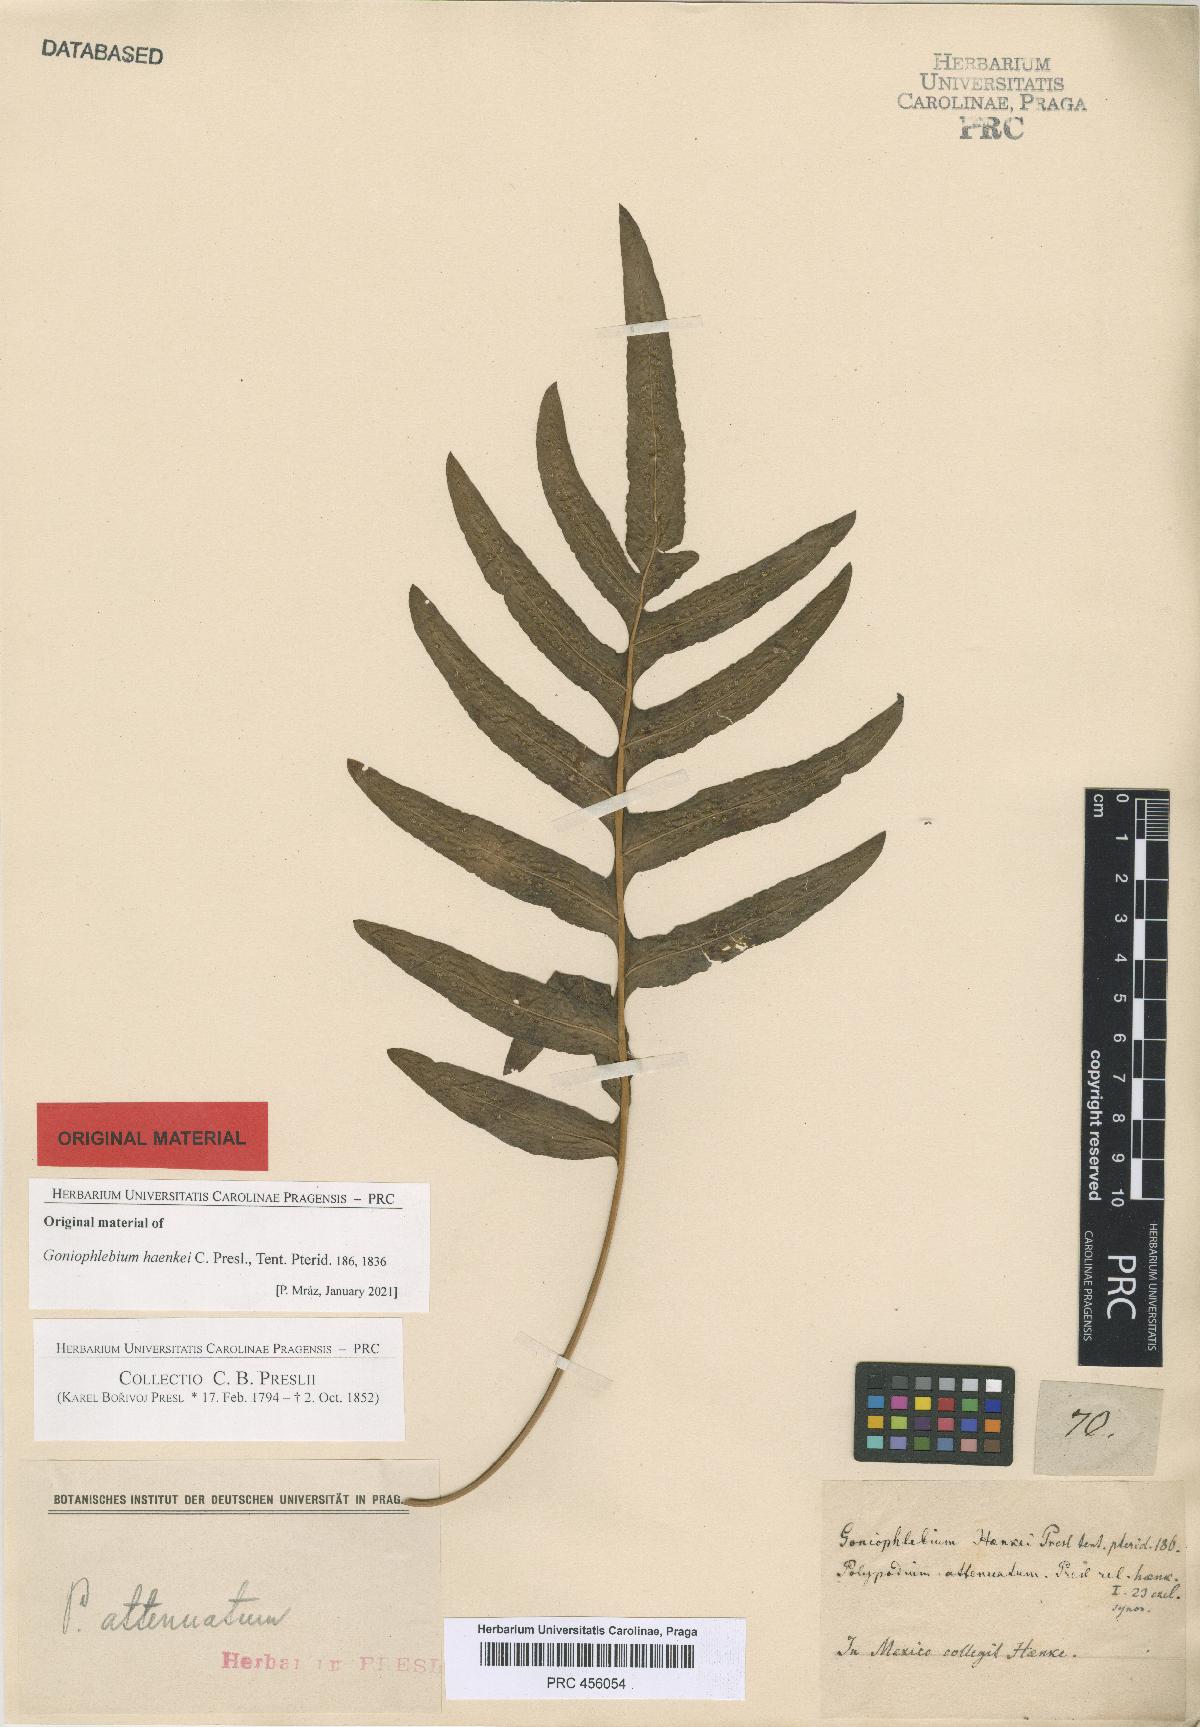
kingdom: Plantae
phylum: Tracheophyta
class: Polypodiopsida
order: Polypodiales
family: Polypodiaceae
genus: Serpocaulon
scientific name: Serpocaulon triseriale
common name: Angle-vein fern
